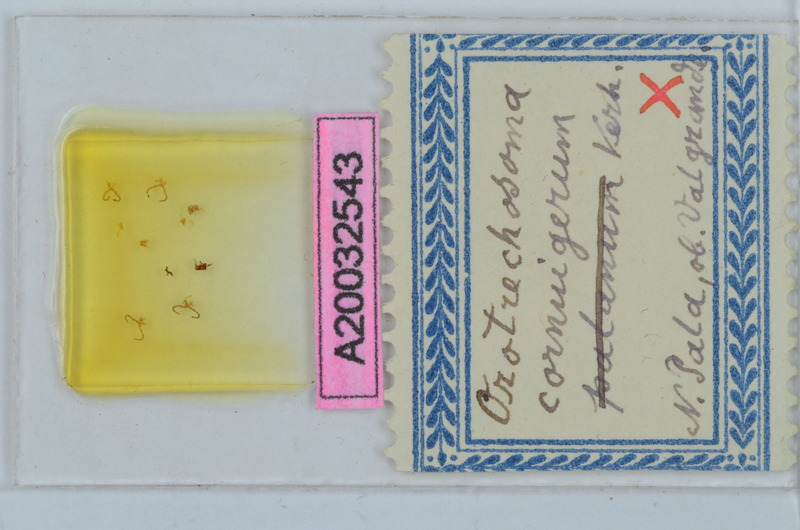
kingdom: Animalia
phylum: Arthropoda
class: Diplopoda
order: Chordeumatida
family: Craspedosomatidae
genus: Pterygophorosoma
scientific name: Pterygophorosoma cornuigerum
